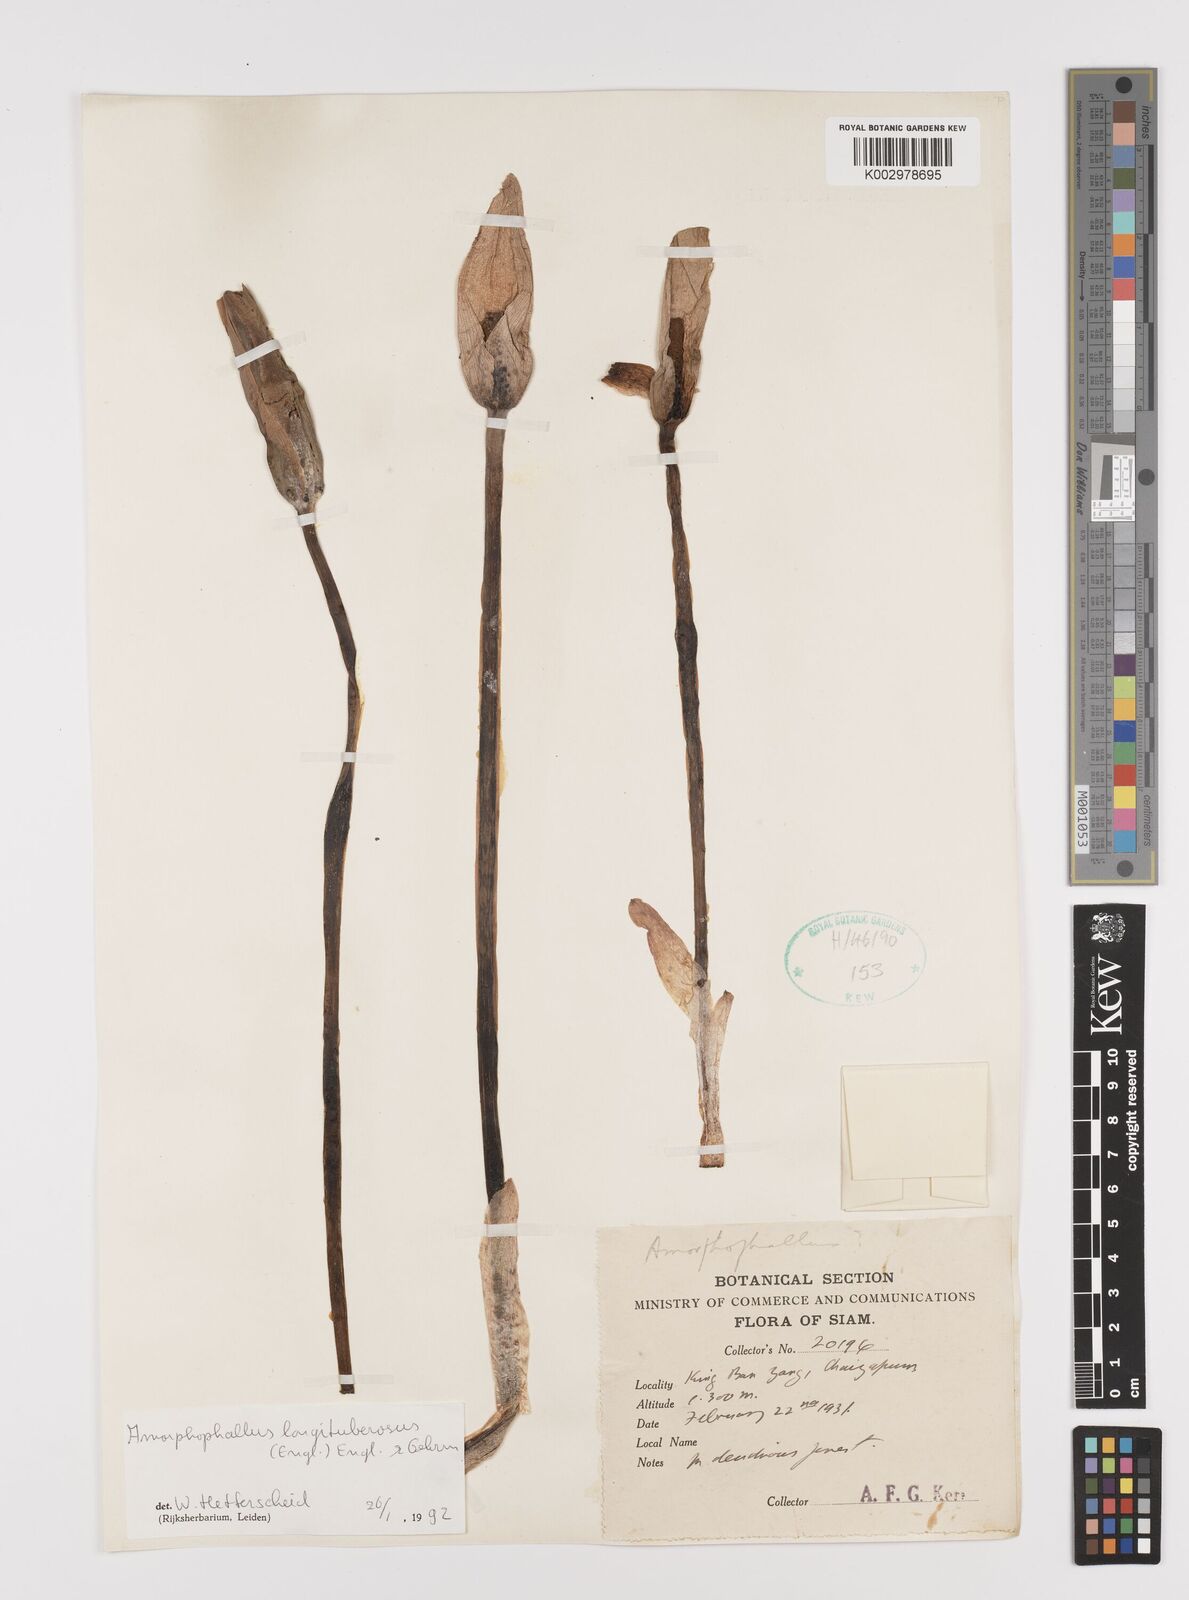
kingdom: Plantae
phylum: Tracheophyta
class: Liliopsida
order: Alismatales
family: Araceae
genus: Amorphophallus
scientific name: Amorphophallus longituberosus
